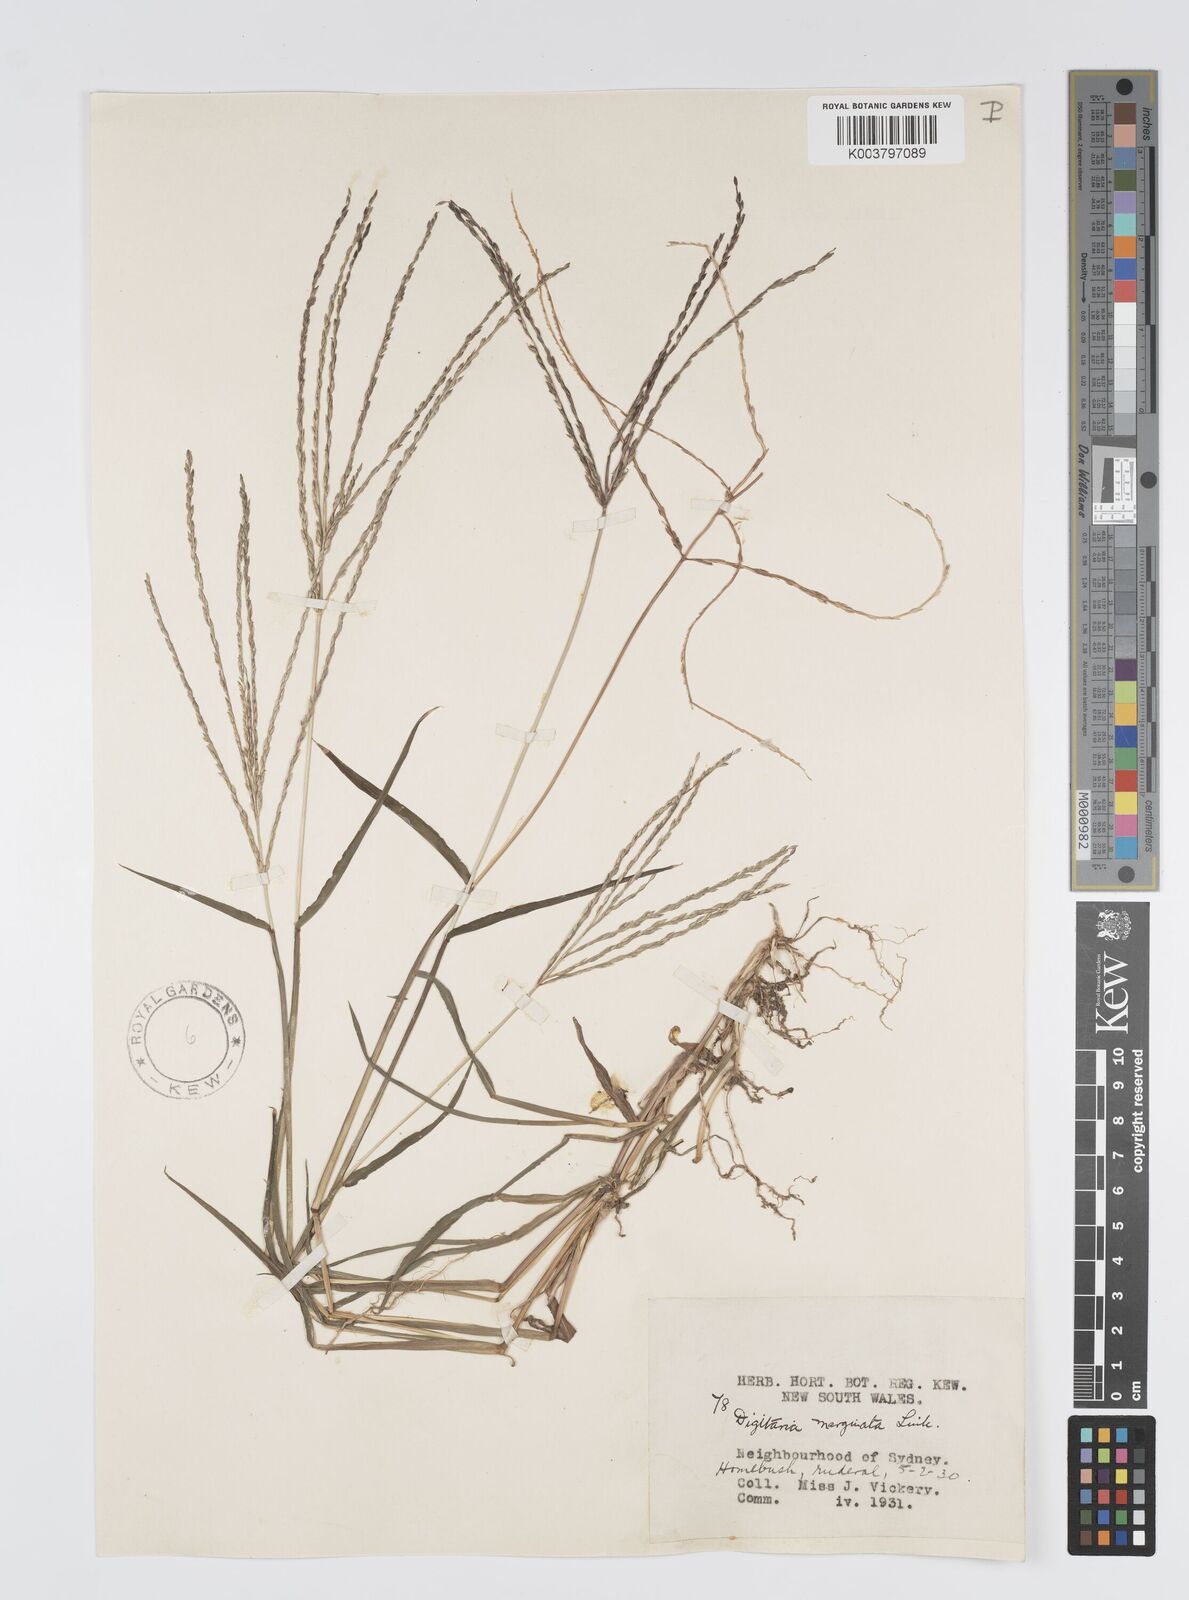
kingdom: Plantae
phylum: Tracheophyta
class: Liliopsida
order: Poales
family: Poaceae
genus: Digitaria
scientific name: Digitaria ciliaris
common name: Tropical finger-grass
